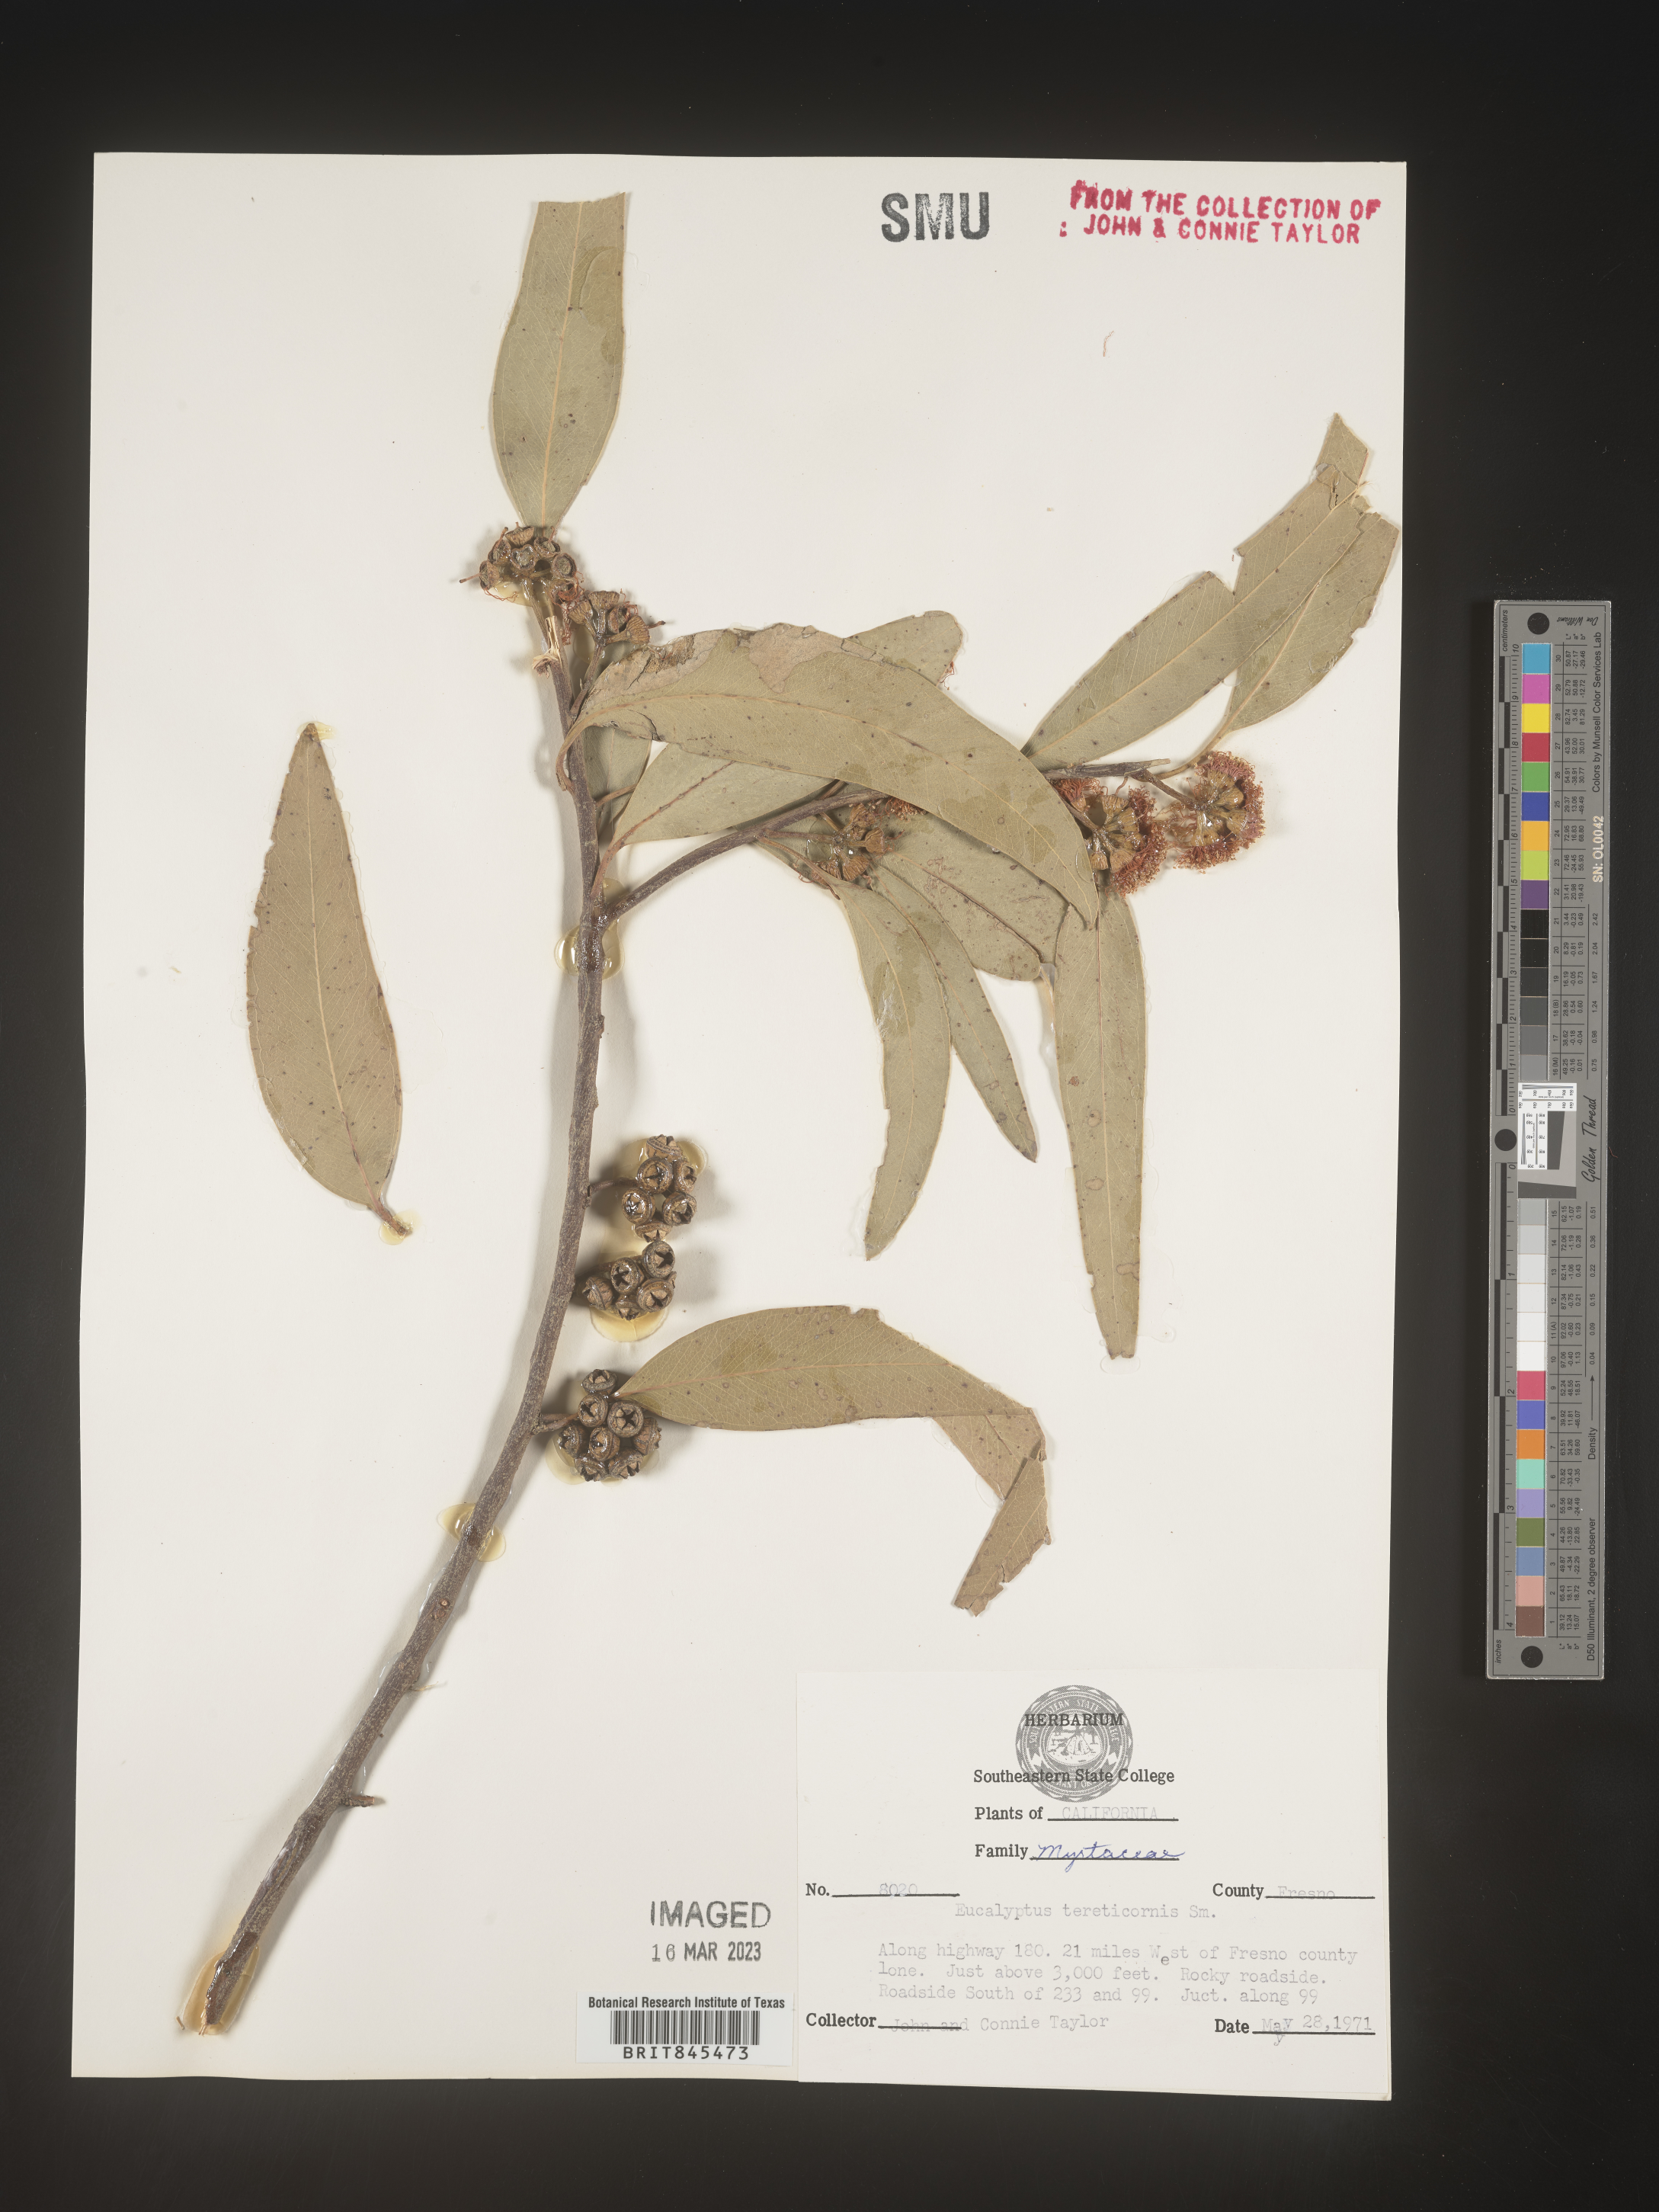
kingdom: Plantae
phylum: Tracheophyta
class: Magnoliopsida
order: Myrtales
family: Myrtaceae
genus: Eucalyptus
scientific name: Eucalyptus
